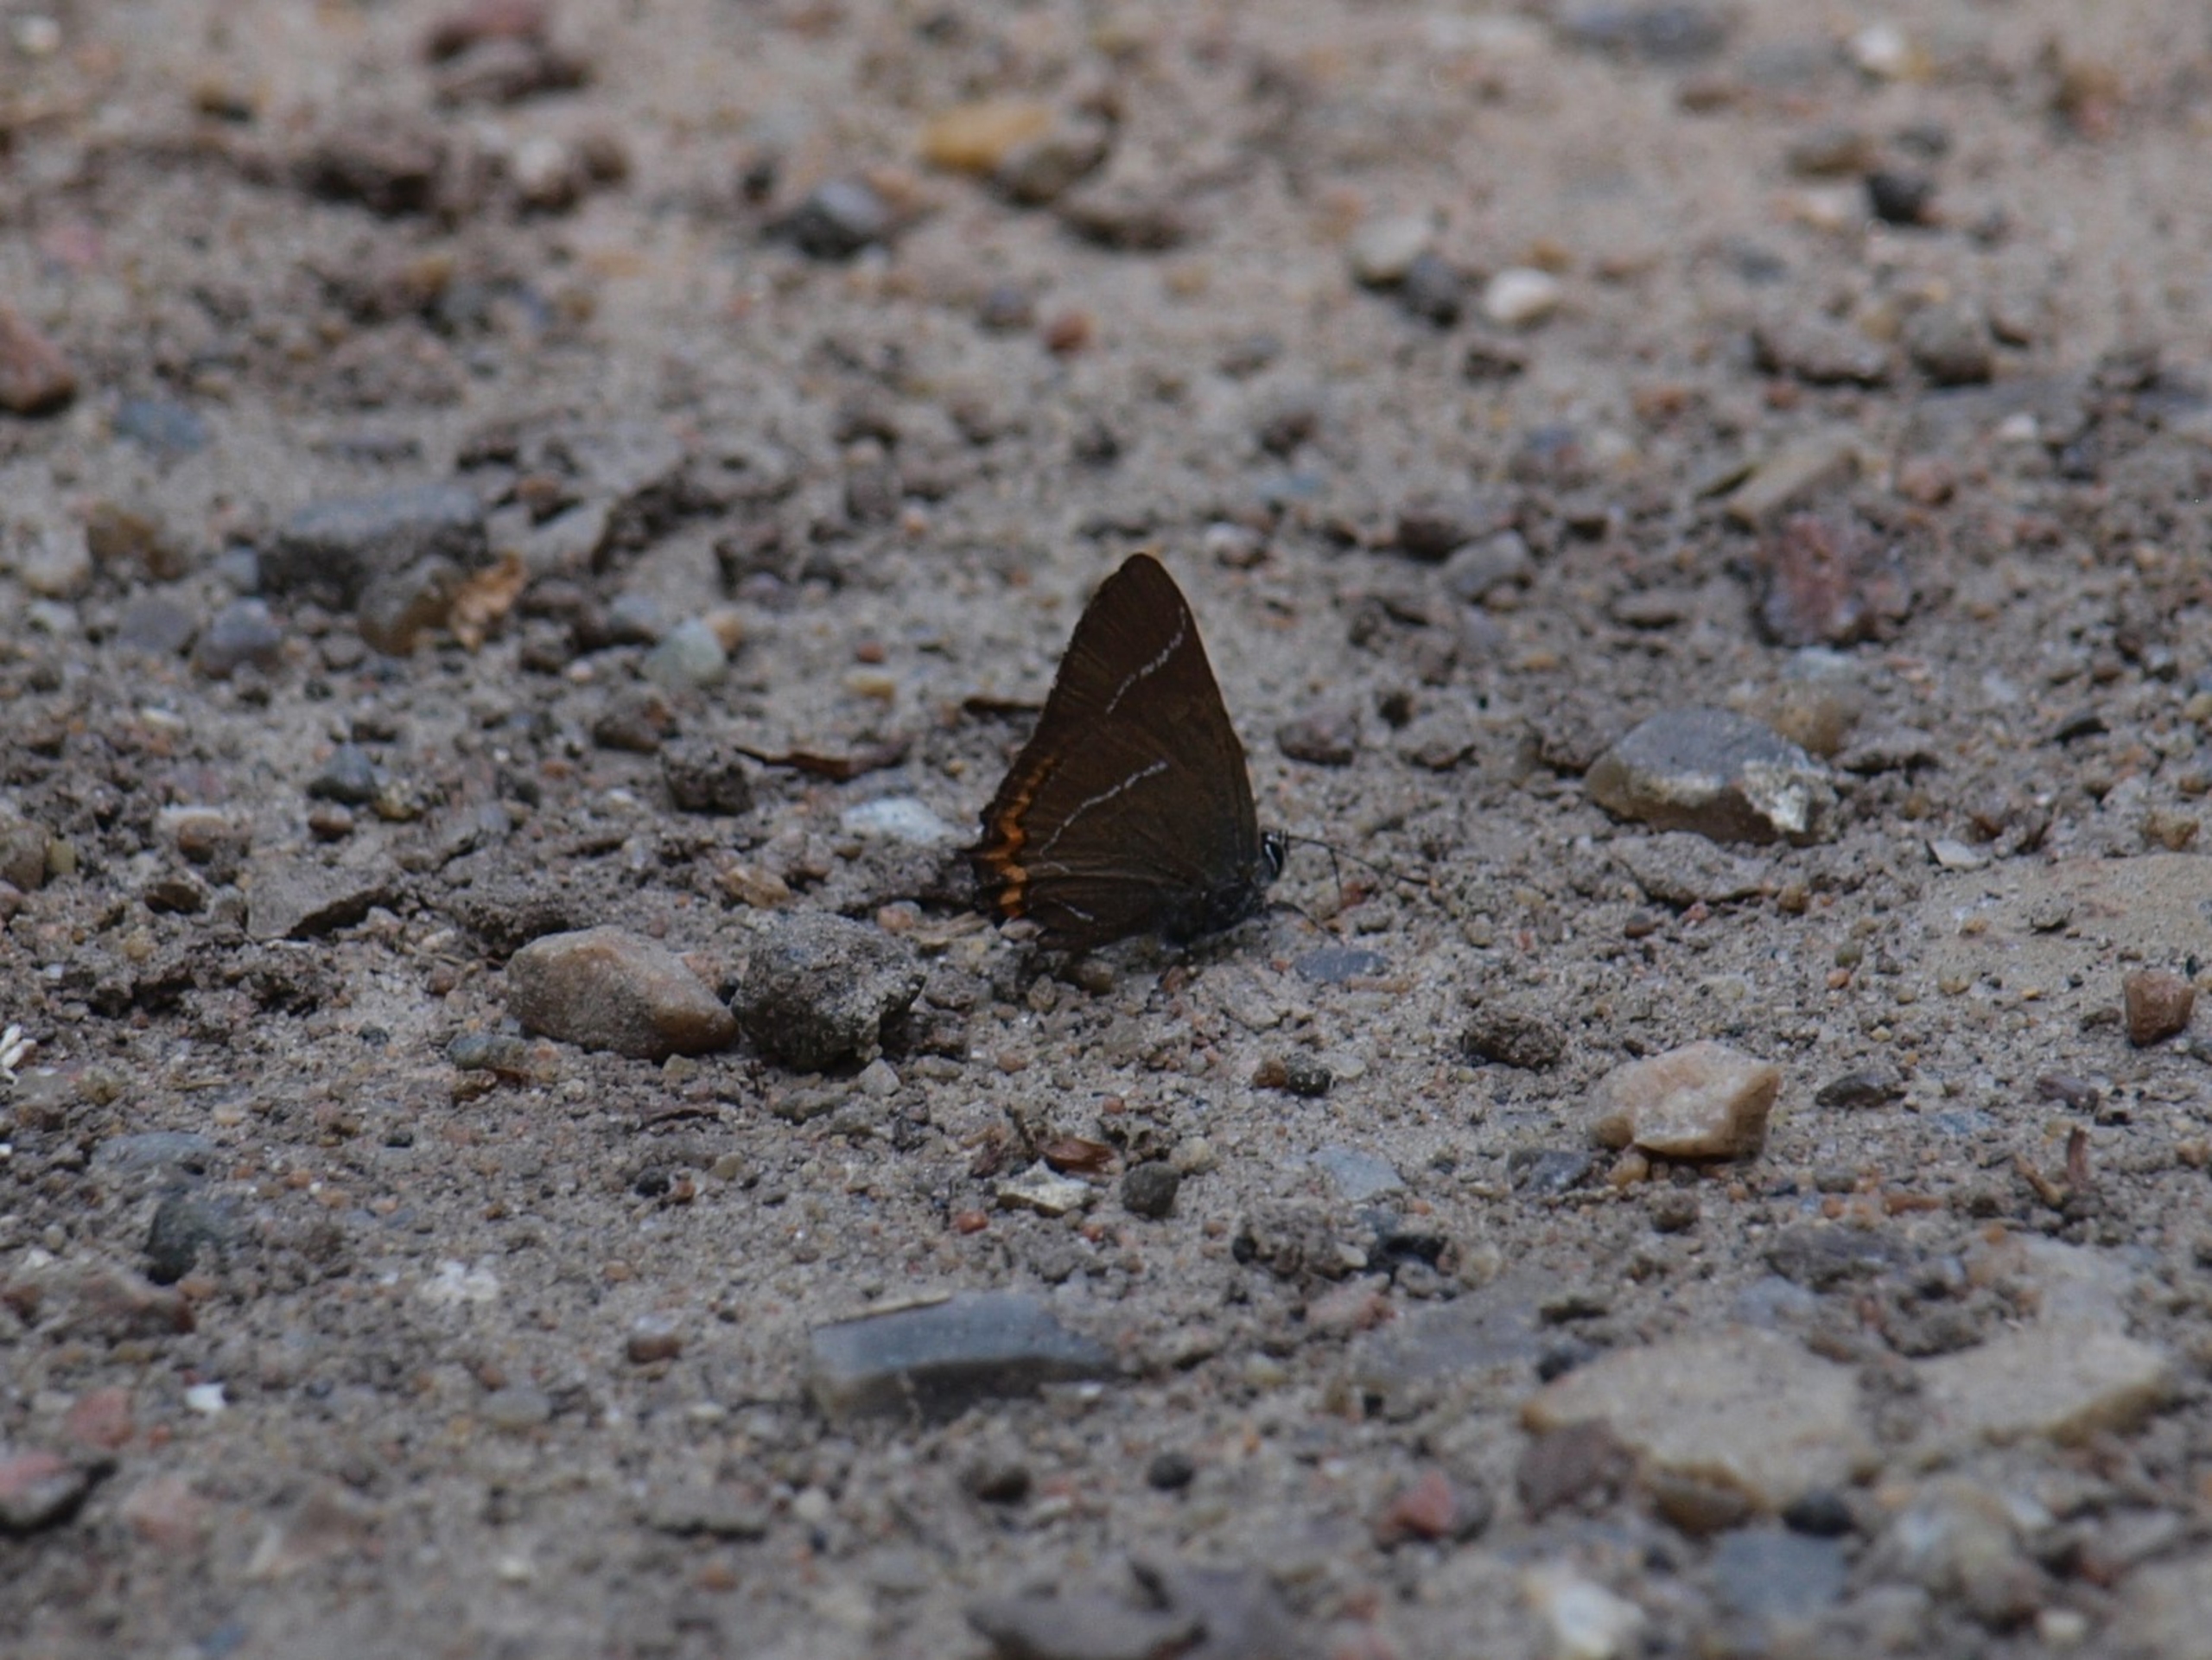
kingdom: Animalia
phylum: Arthropoda
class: Insecta
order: Lepidoptera
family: Lycaenidae
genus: Satyrium
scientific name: Satyrium w-album
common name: Det hvide W
